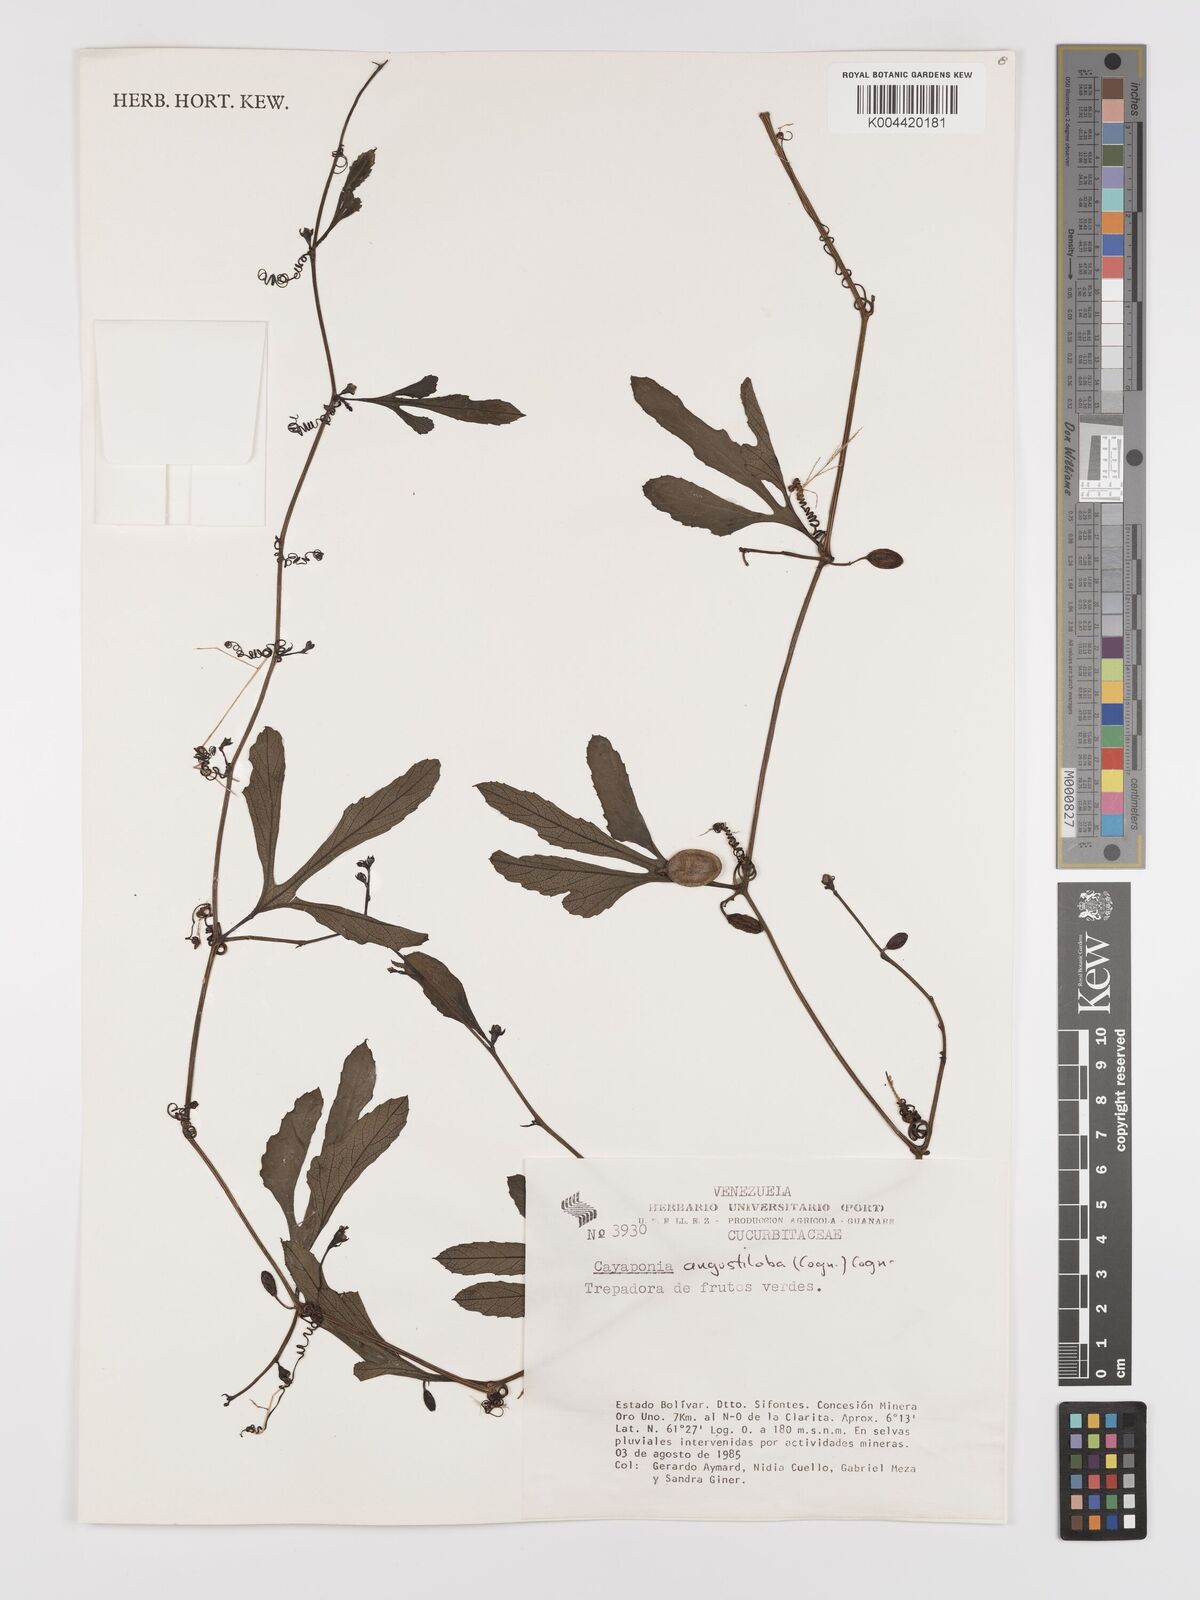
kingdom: Plantae
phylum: Tracheophyta
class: Magnoliopsida
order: Cucurbitales
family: Cucurbitaceae
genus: Cayaponia
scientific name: Cayaponia
